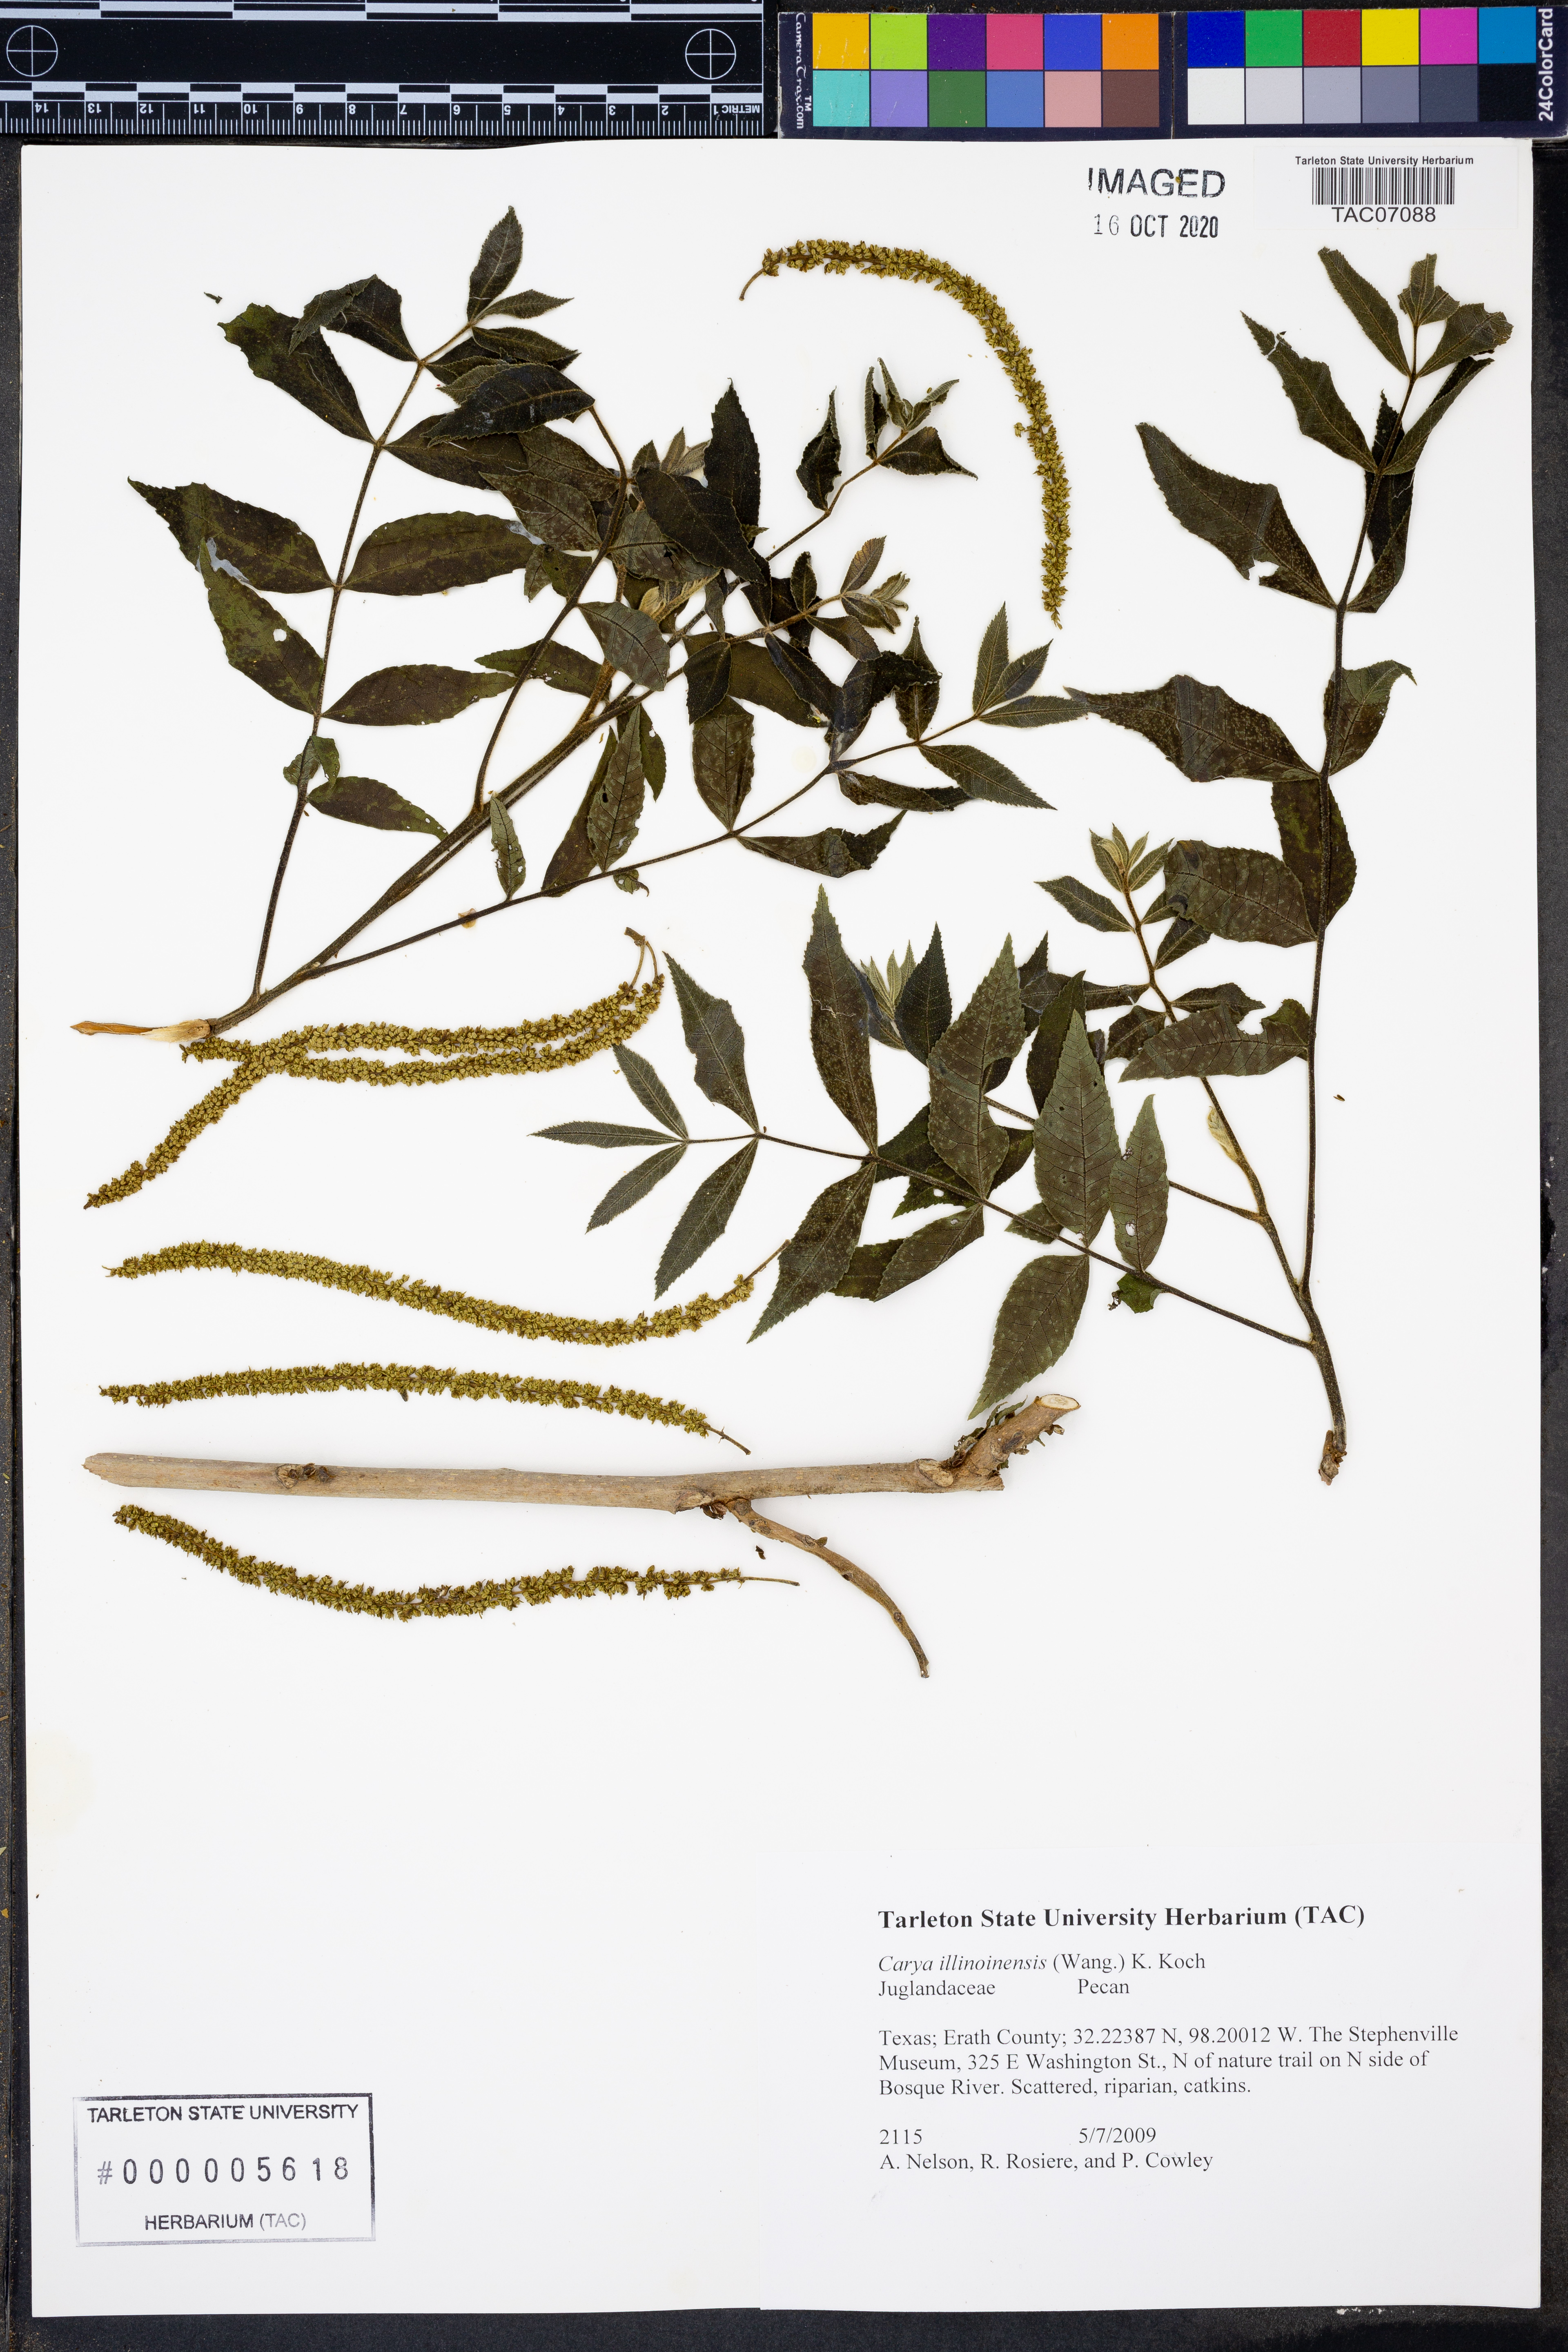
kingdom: Plantae
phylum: Tracheophyta
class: Magnoliopsida
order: Fagales
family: Juglandaceae
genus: Carya
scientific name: Carya illinoinensis
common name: Pecan
